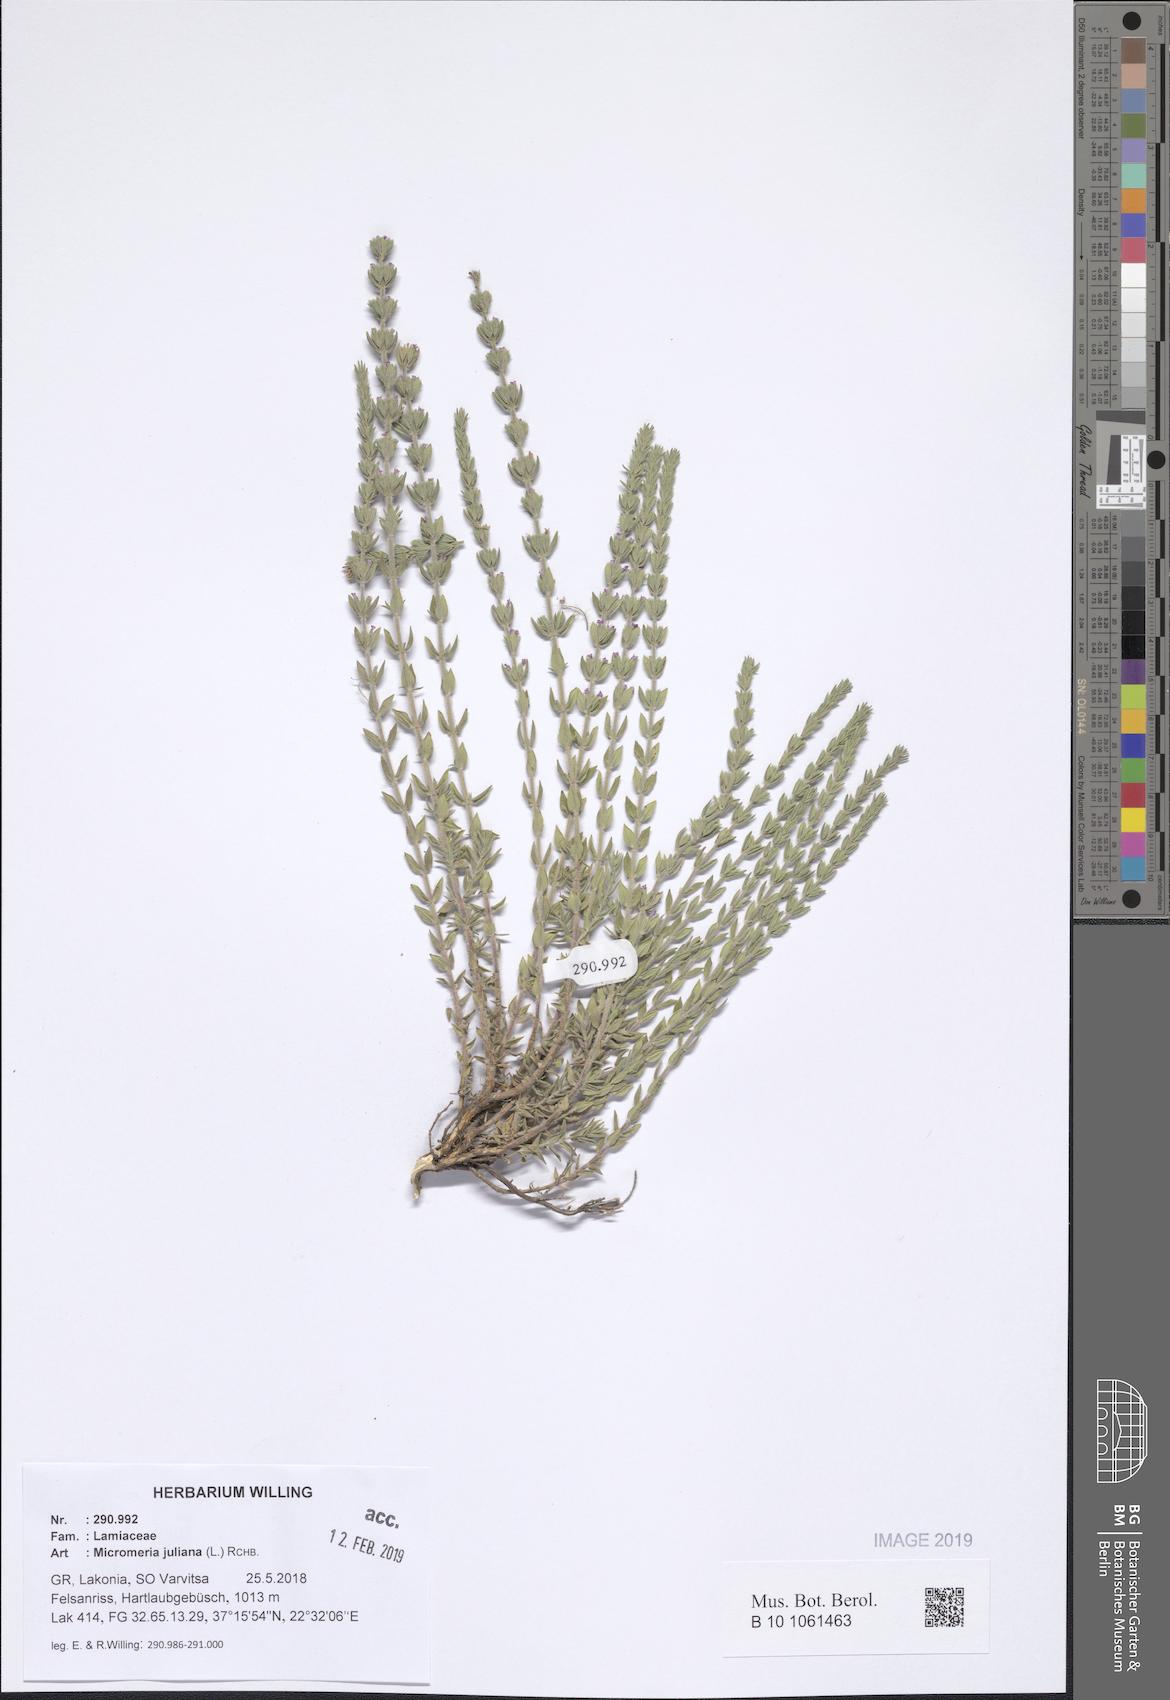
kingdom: Plantae
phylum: Tracheophyta
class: Magnoliopsida
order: Lamiales
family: Lamiaceae
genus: Micromeria
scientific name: Micromeria juliana
